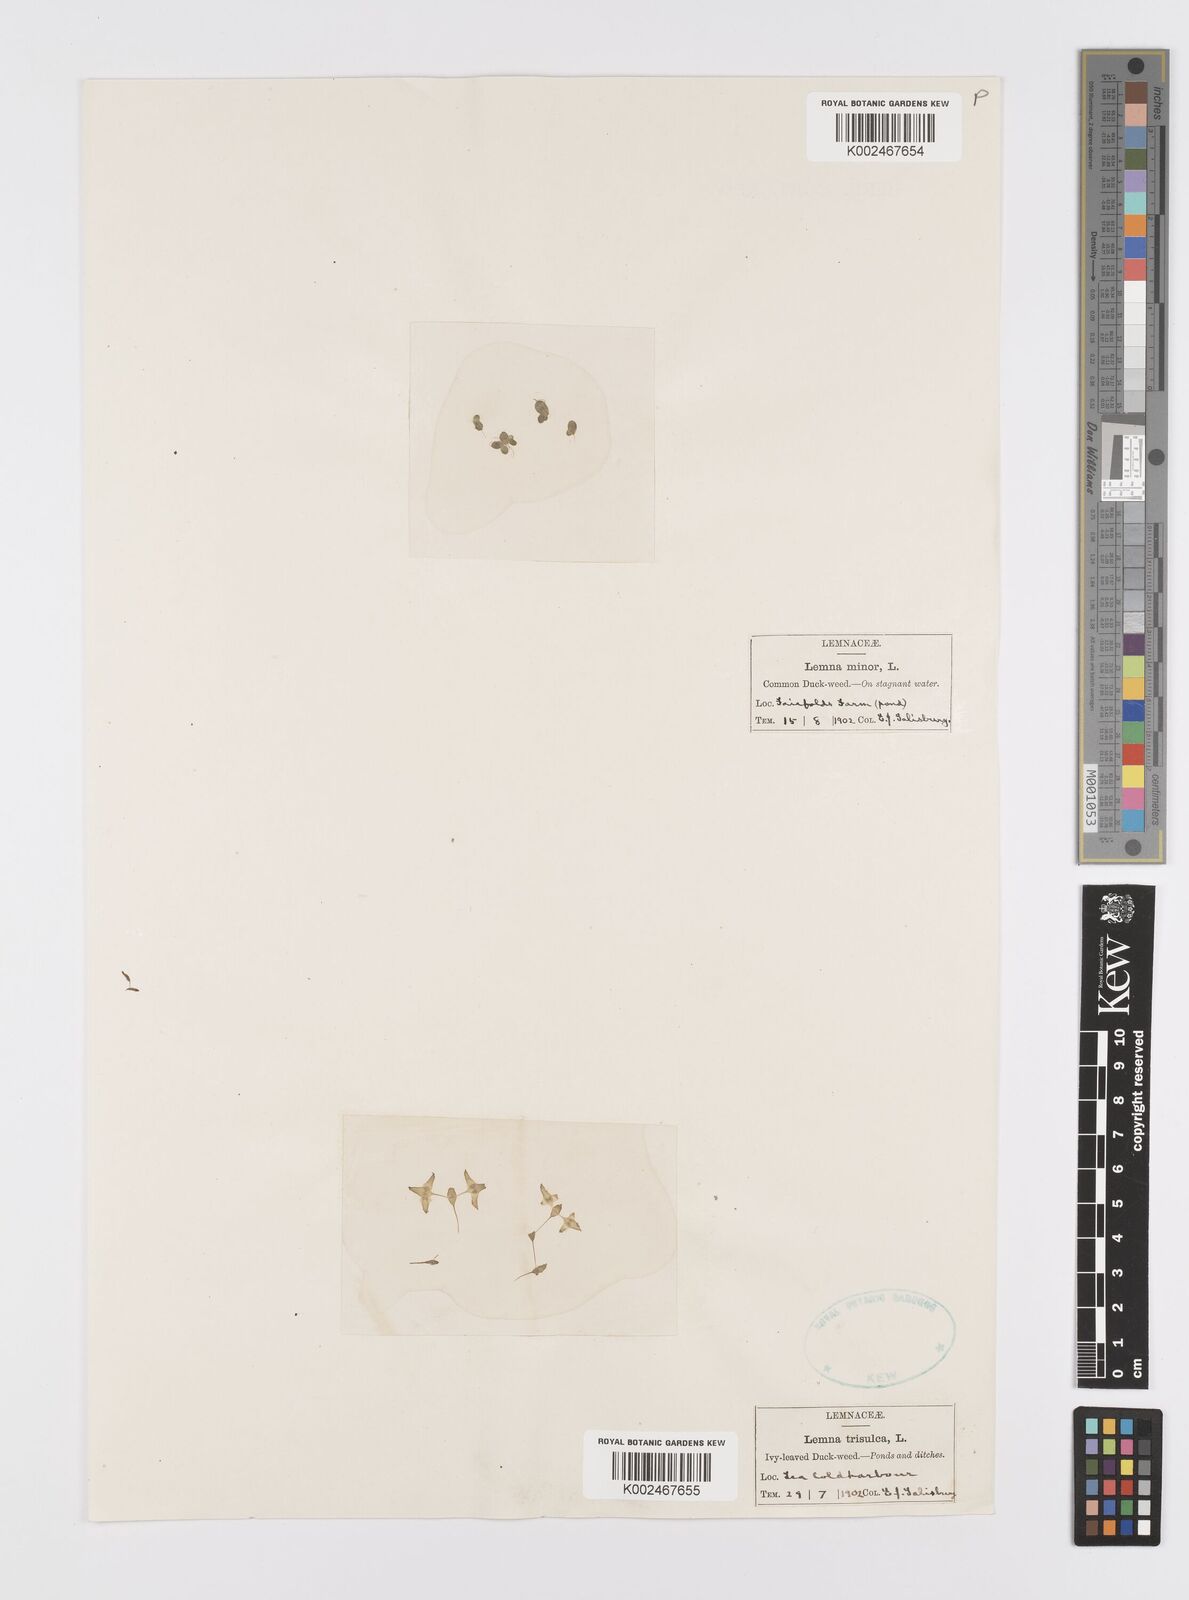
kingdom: Plantae
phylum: Tracheophyta
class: Liliopsida
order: Alismatales
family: Araceae
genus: Lemna
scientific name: Lemna trisulca
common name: Ivy-leaved duckweed
